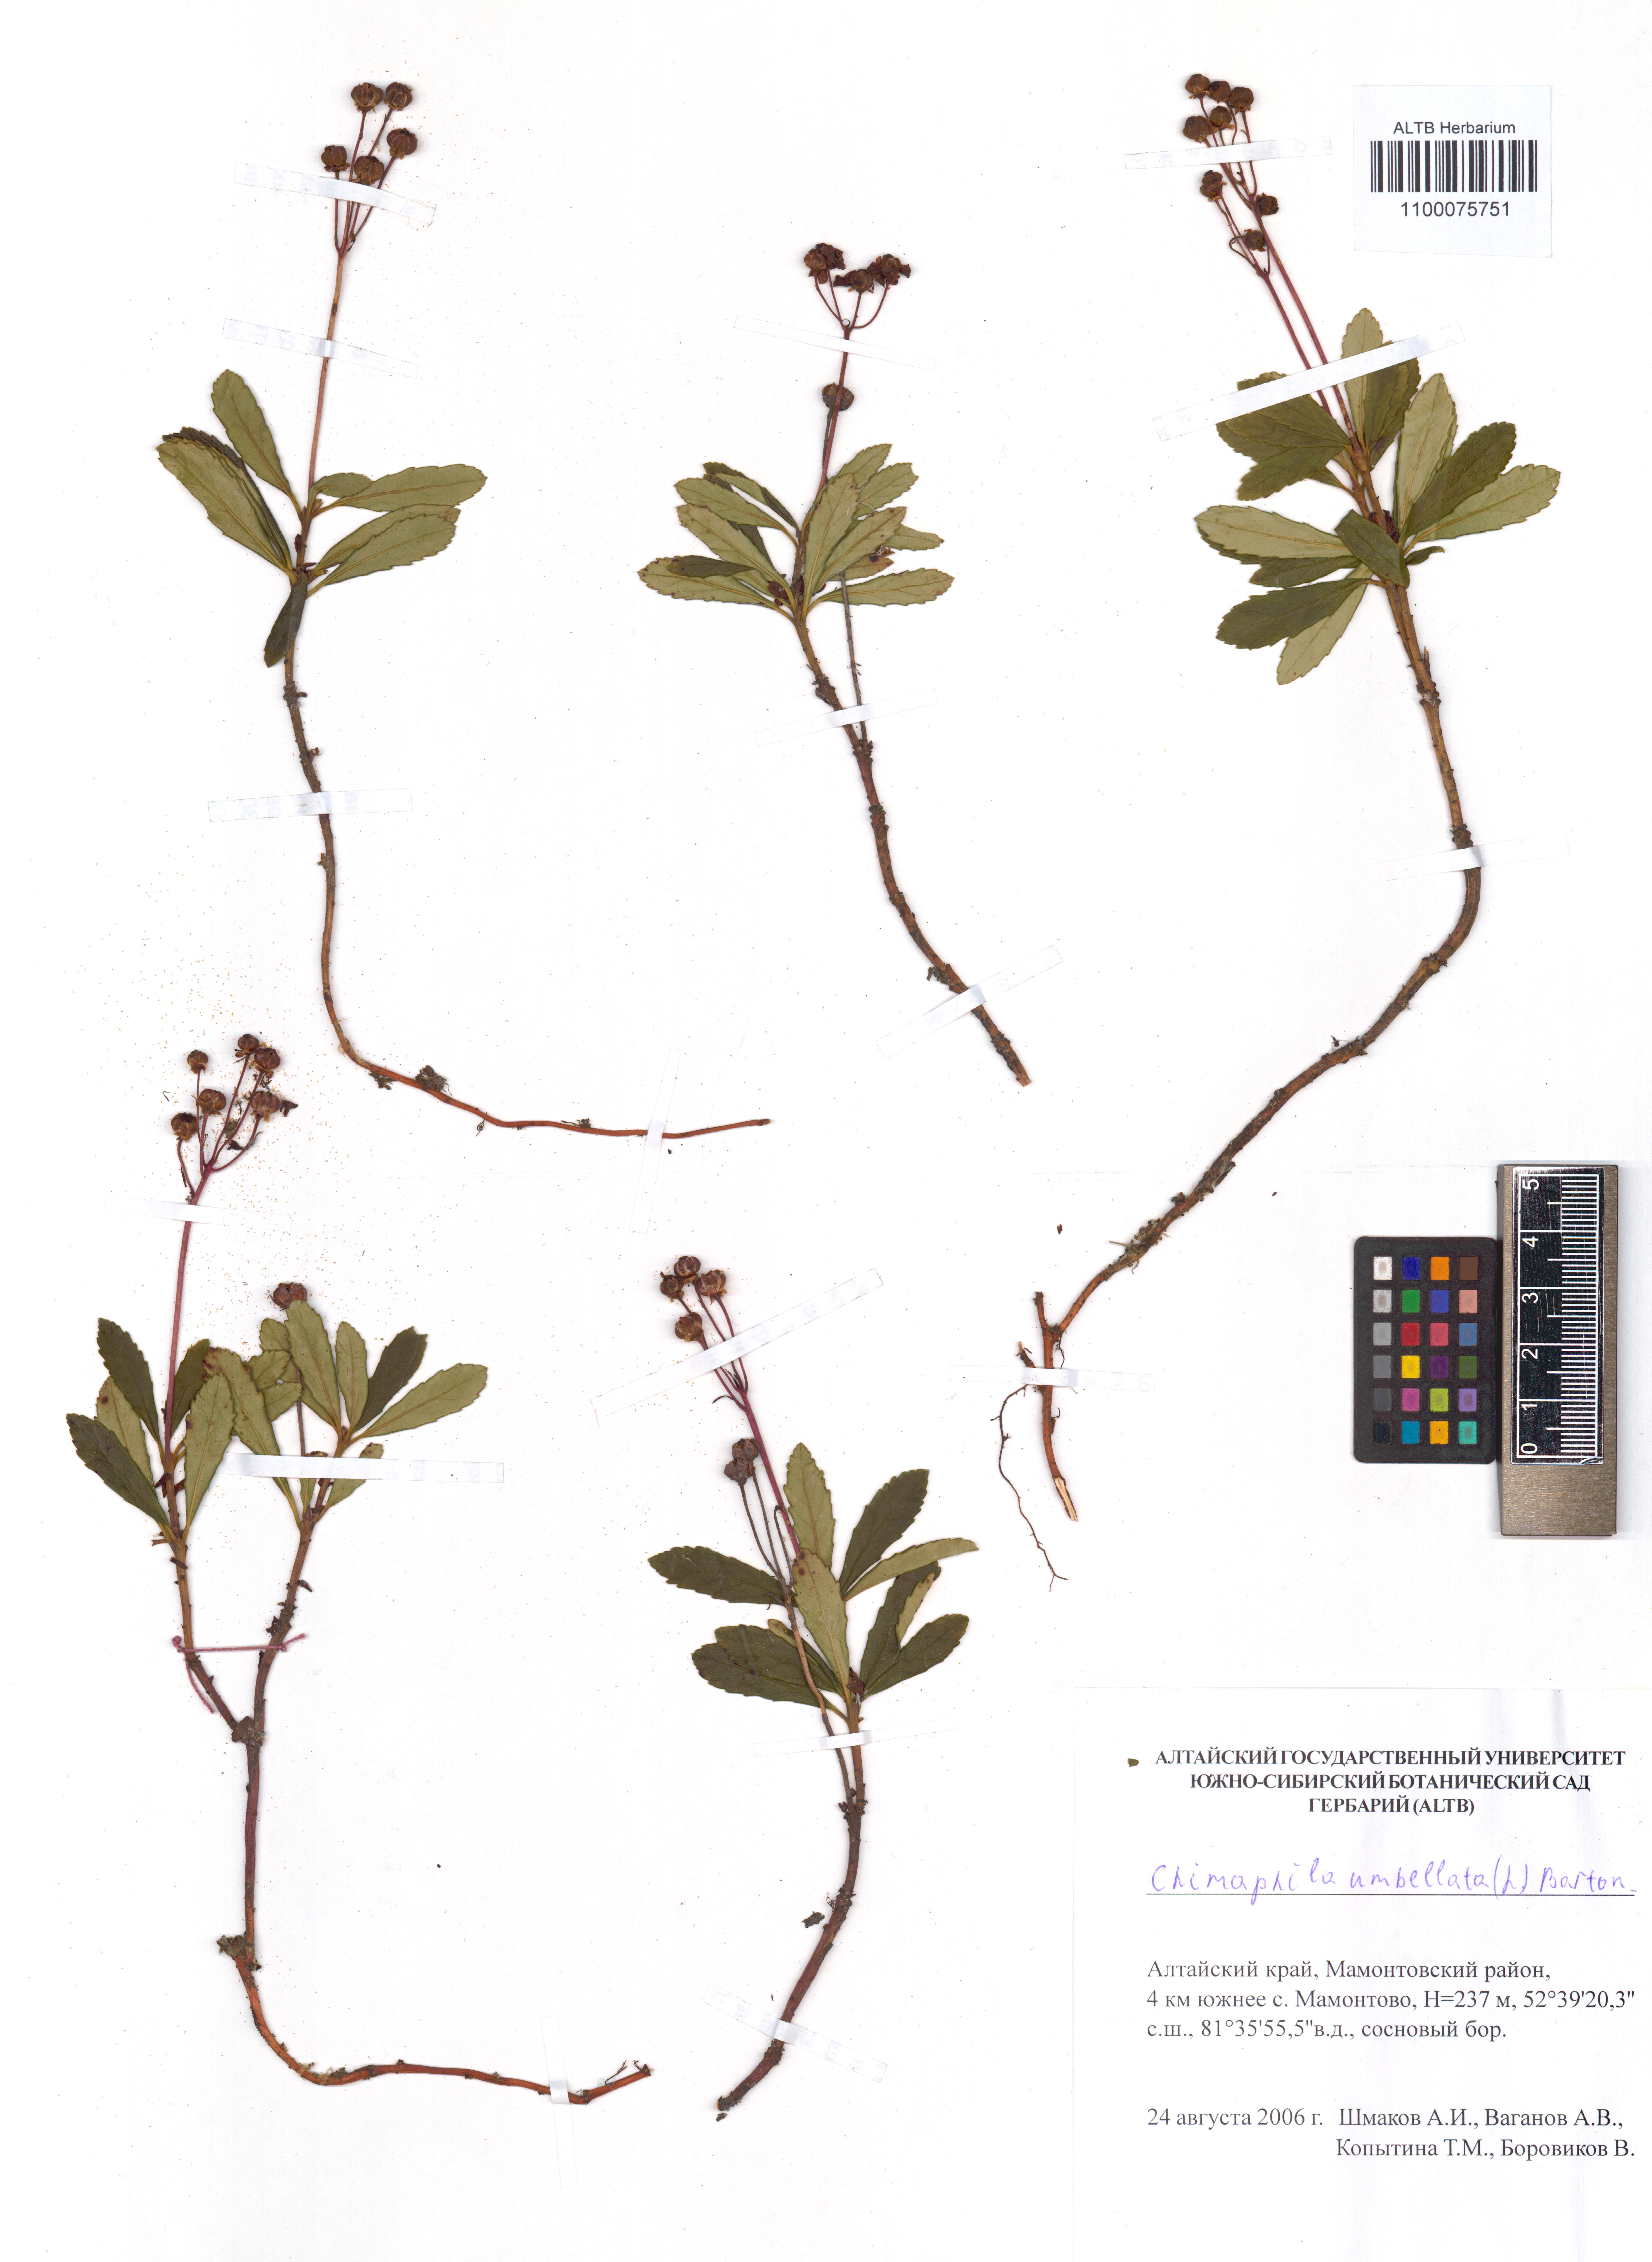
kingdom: Plantae
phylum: Tracheophyta
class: Magnoliopsida
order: Ericales
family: Ericaceae
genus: Chimaphila
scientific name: Chimaphila umbellata
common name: Pipsissewa
